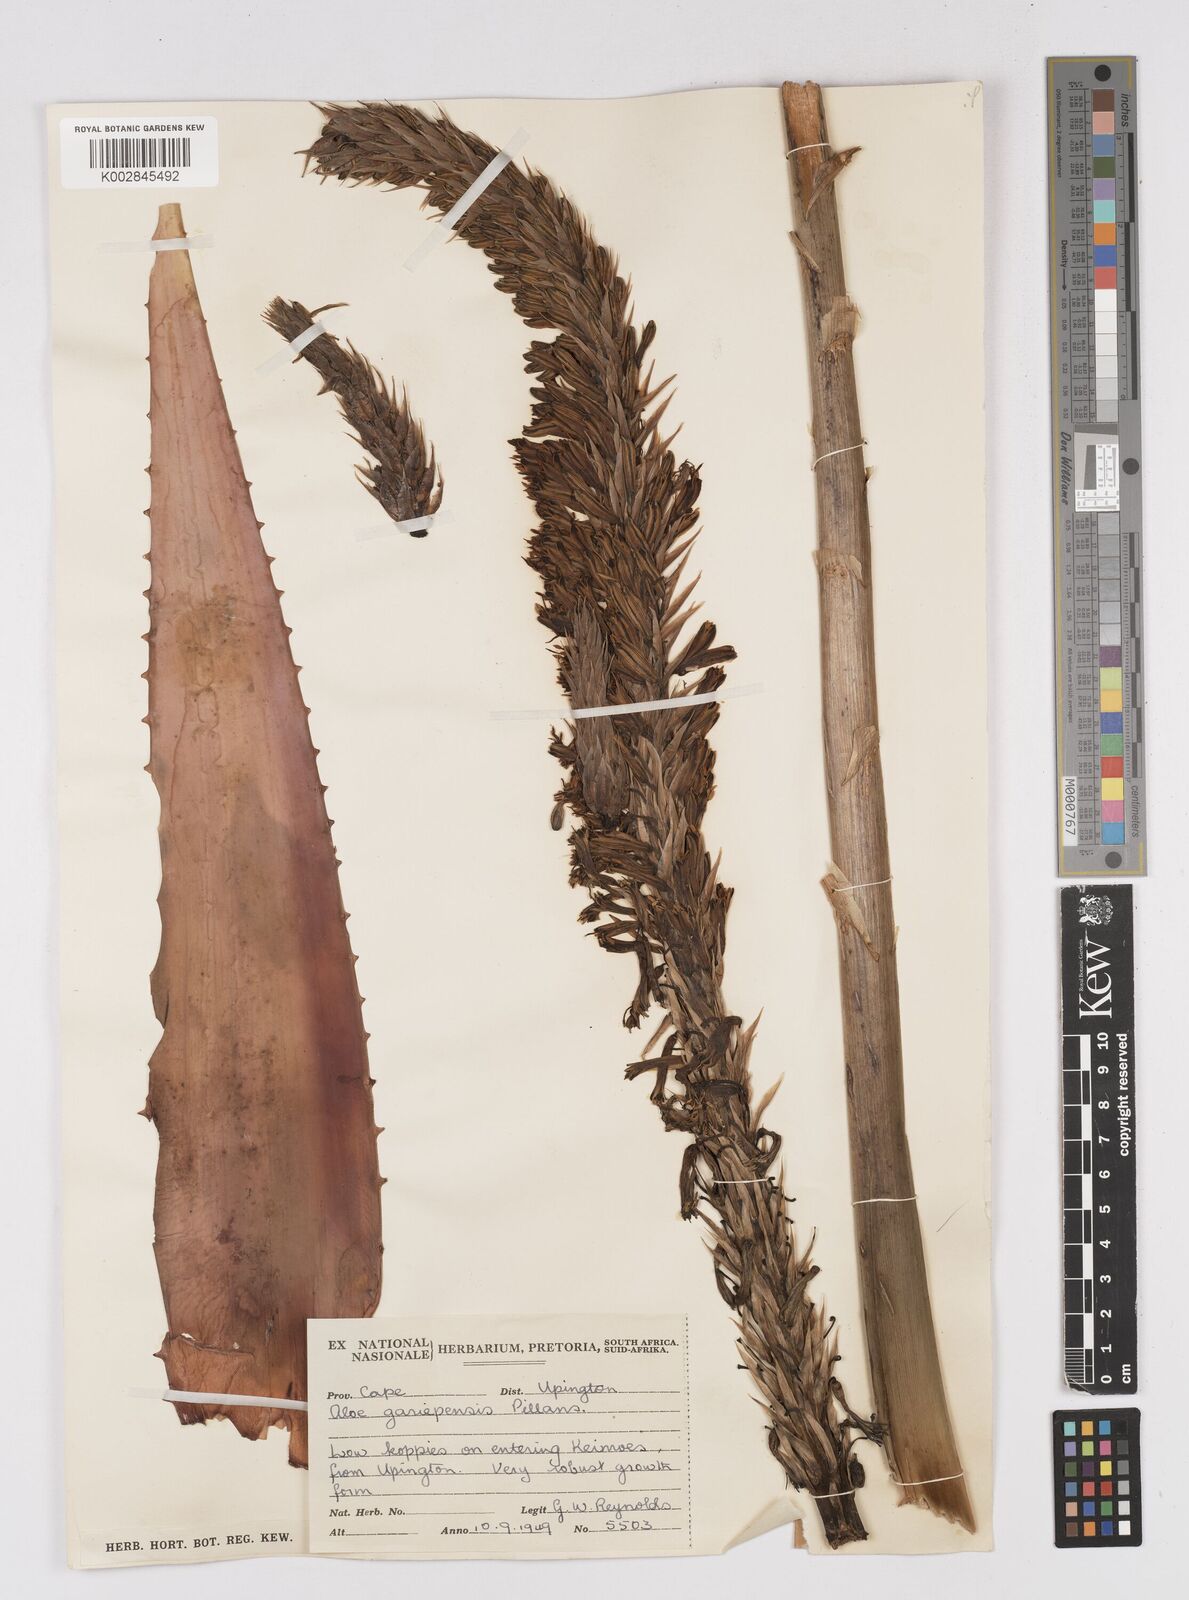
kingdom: Plantae
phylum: Tracheophyta
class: Liliopsida
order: Asparagales
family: Asphodelaceae
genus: Aloe
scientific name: Aloe gariepensis
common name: Orange river aloe
